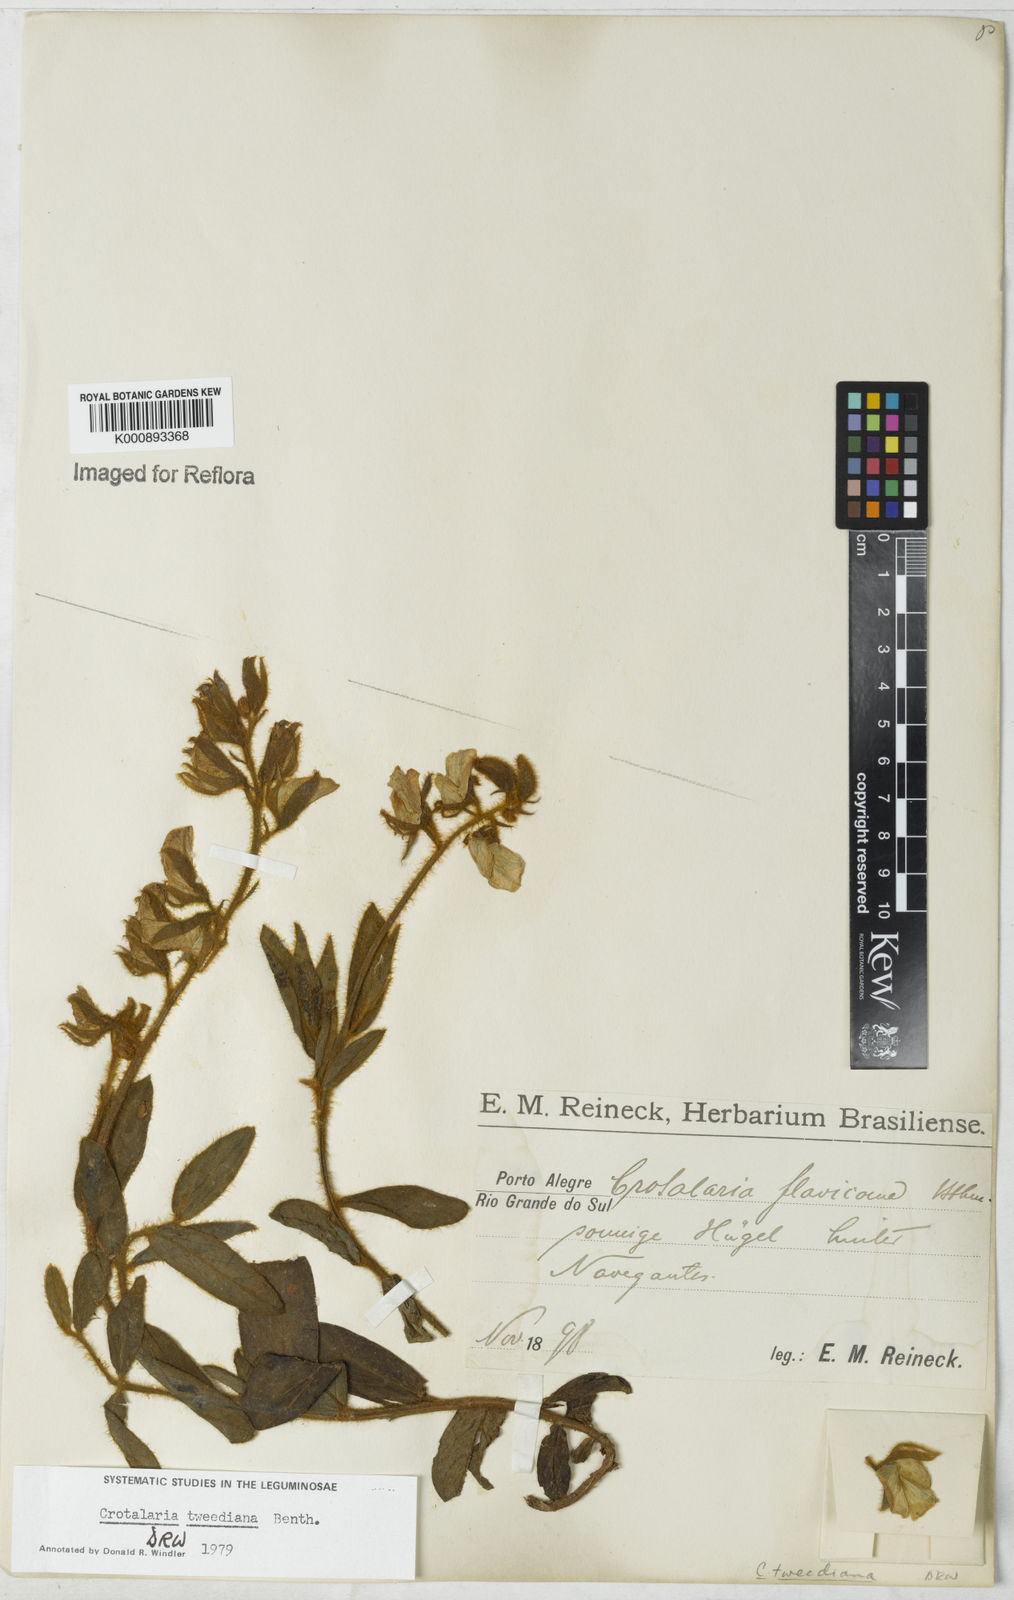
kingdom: Plantae
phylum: Tracheophyta
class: Magnoliopsida
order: Fabales
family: Fabaceae
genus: Crotalaria
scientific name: Crotalaria
